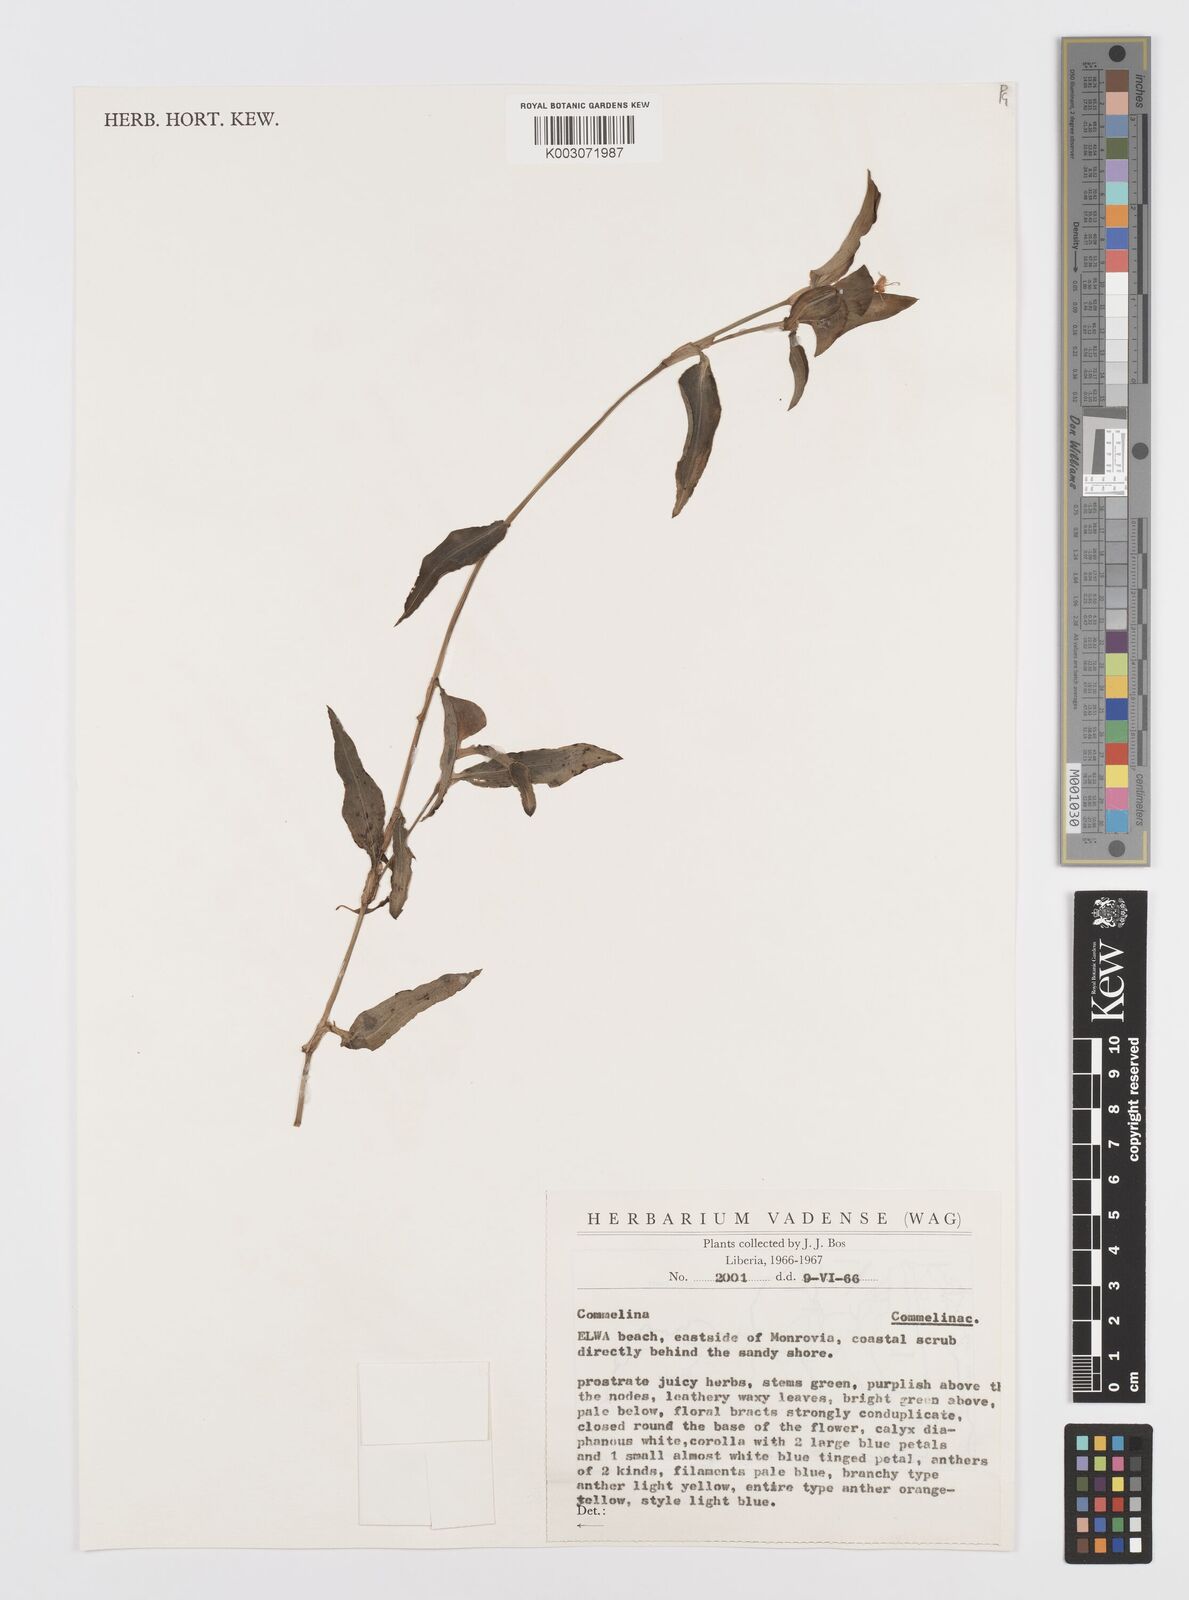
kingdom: Plantae
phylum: Tracheophyta
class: Liliopsida
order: Commelinales
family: Commelinaceae
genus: Commelina
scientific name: Commelina
